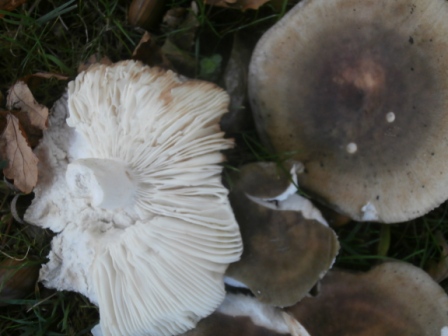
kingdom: Fungi
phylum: Basidiomycota
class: Agaricomycetes
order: Russulales
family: Russulaceae
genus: Russula
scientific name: Russula heterophylla
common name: gaffelbladet skørhat
